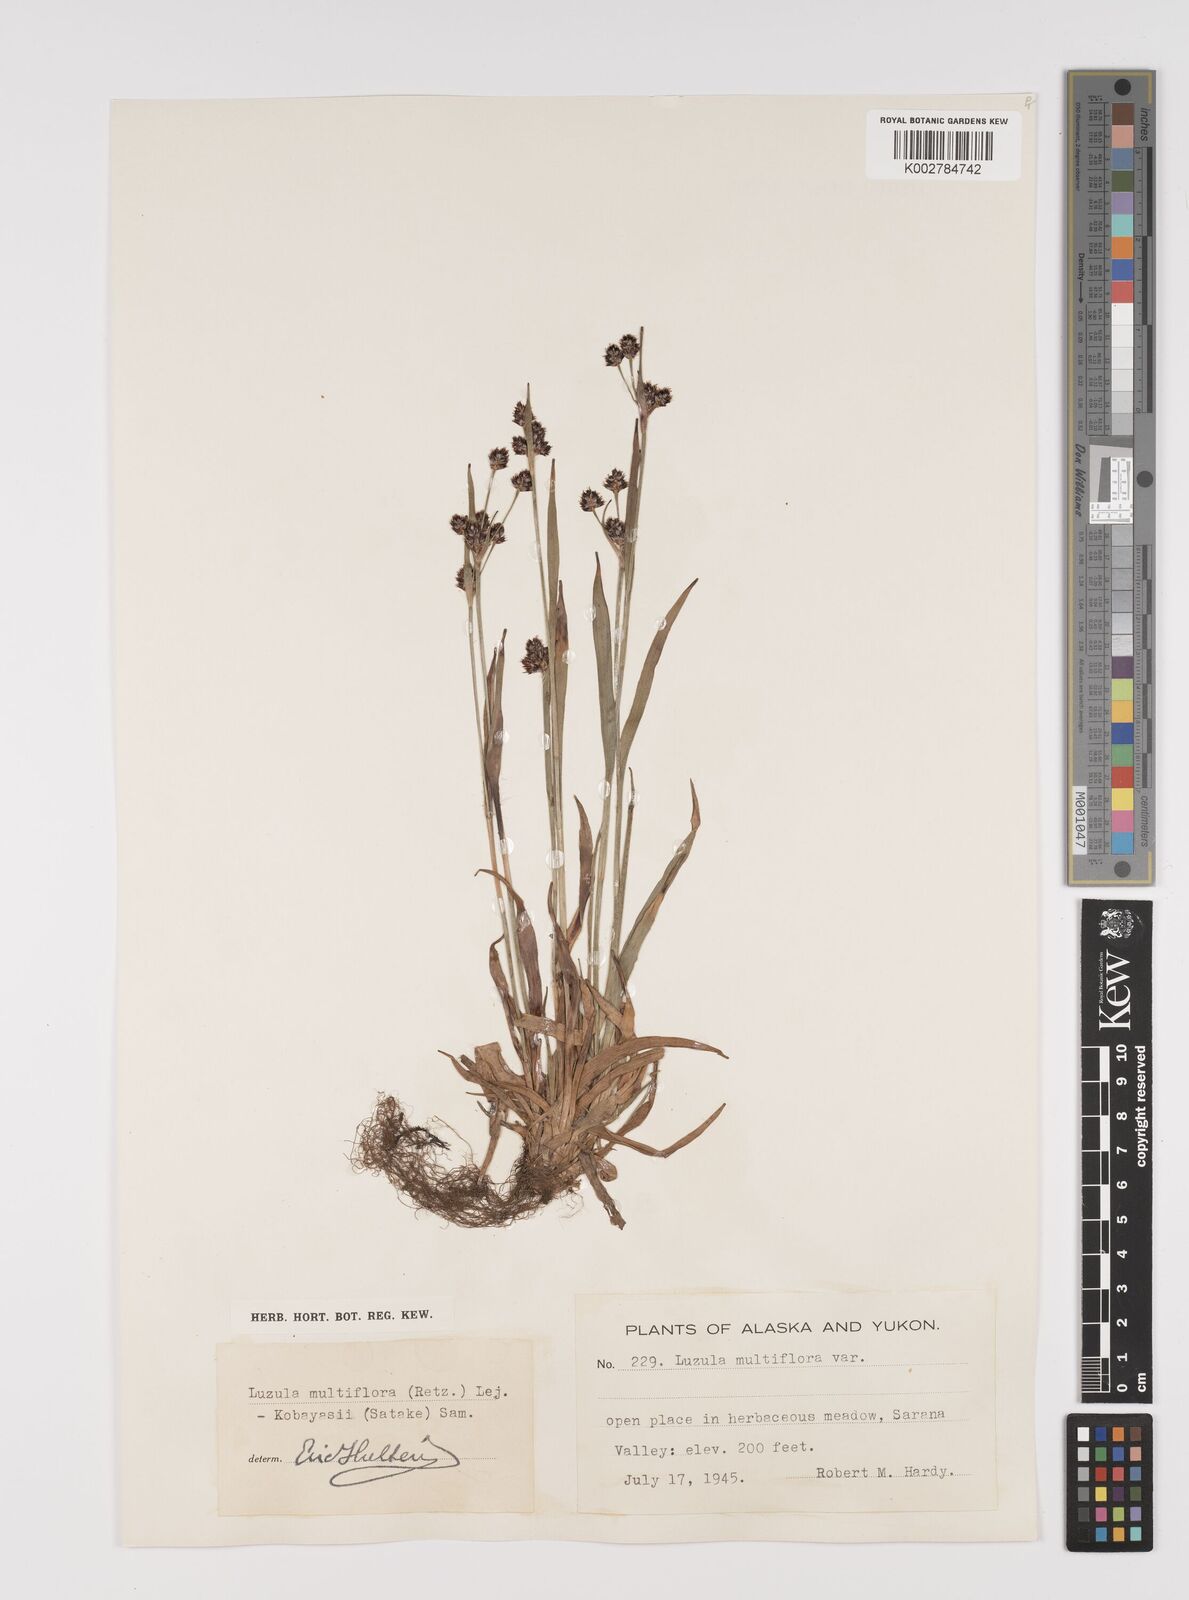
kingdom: Plantae
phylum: Tracheophyta
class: Liliopsida
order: Poales
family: Juncaceae
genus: Luzula
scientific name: Luzula campestris
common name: Field wood-rush
